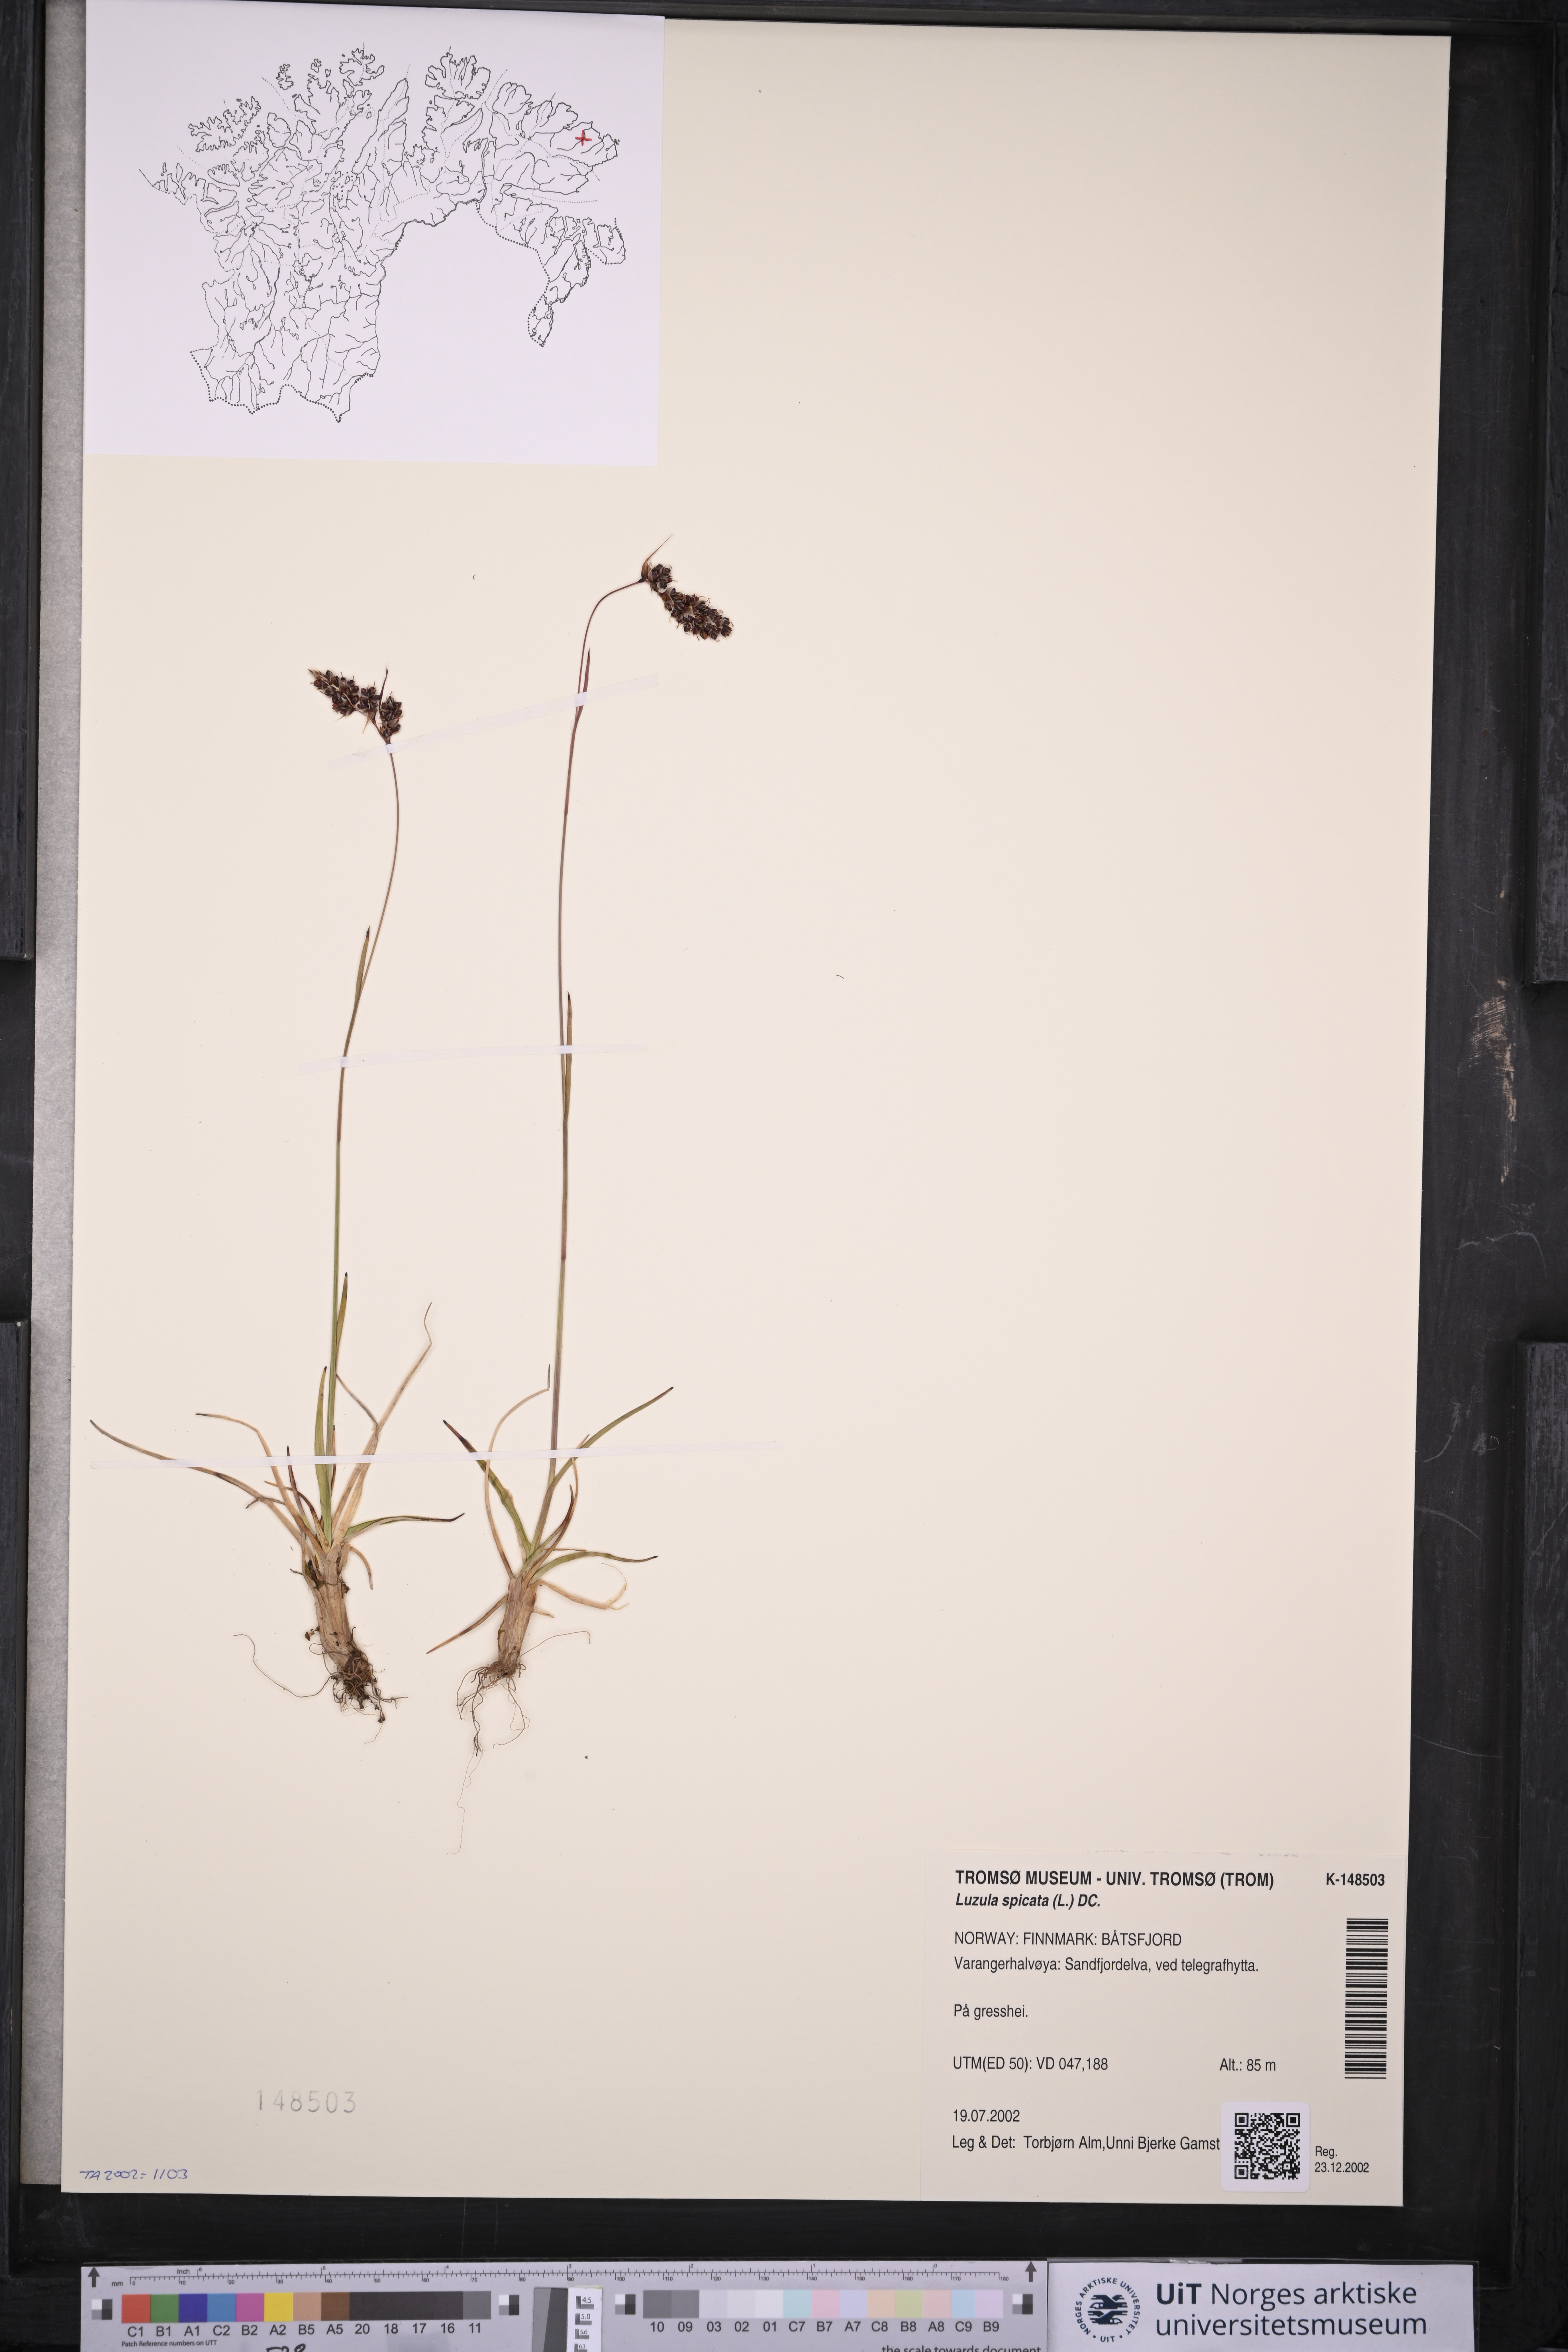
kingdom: Plantae
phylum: Tracheophyta
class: Liliopsida
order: Poales
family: Juncaceae
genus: Luzula
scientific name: Luzula spicata
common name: Spiked wood-rush
